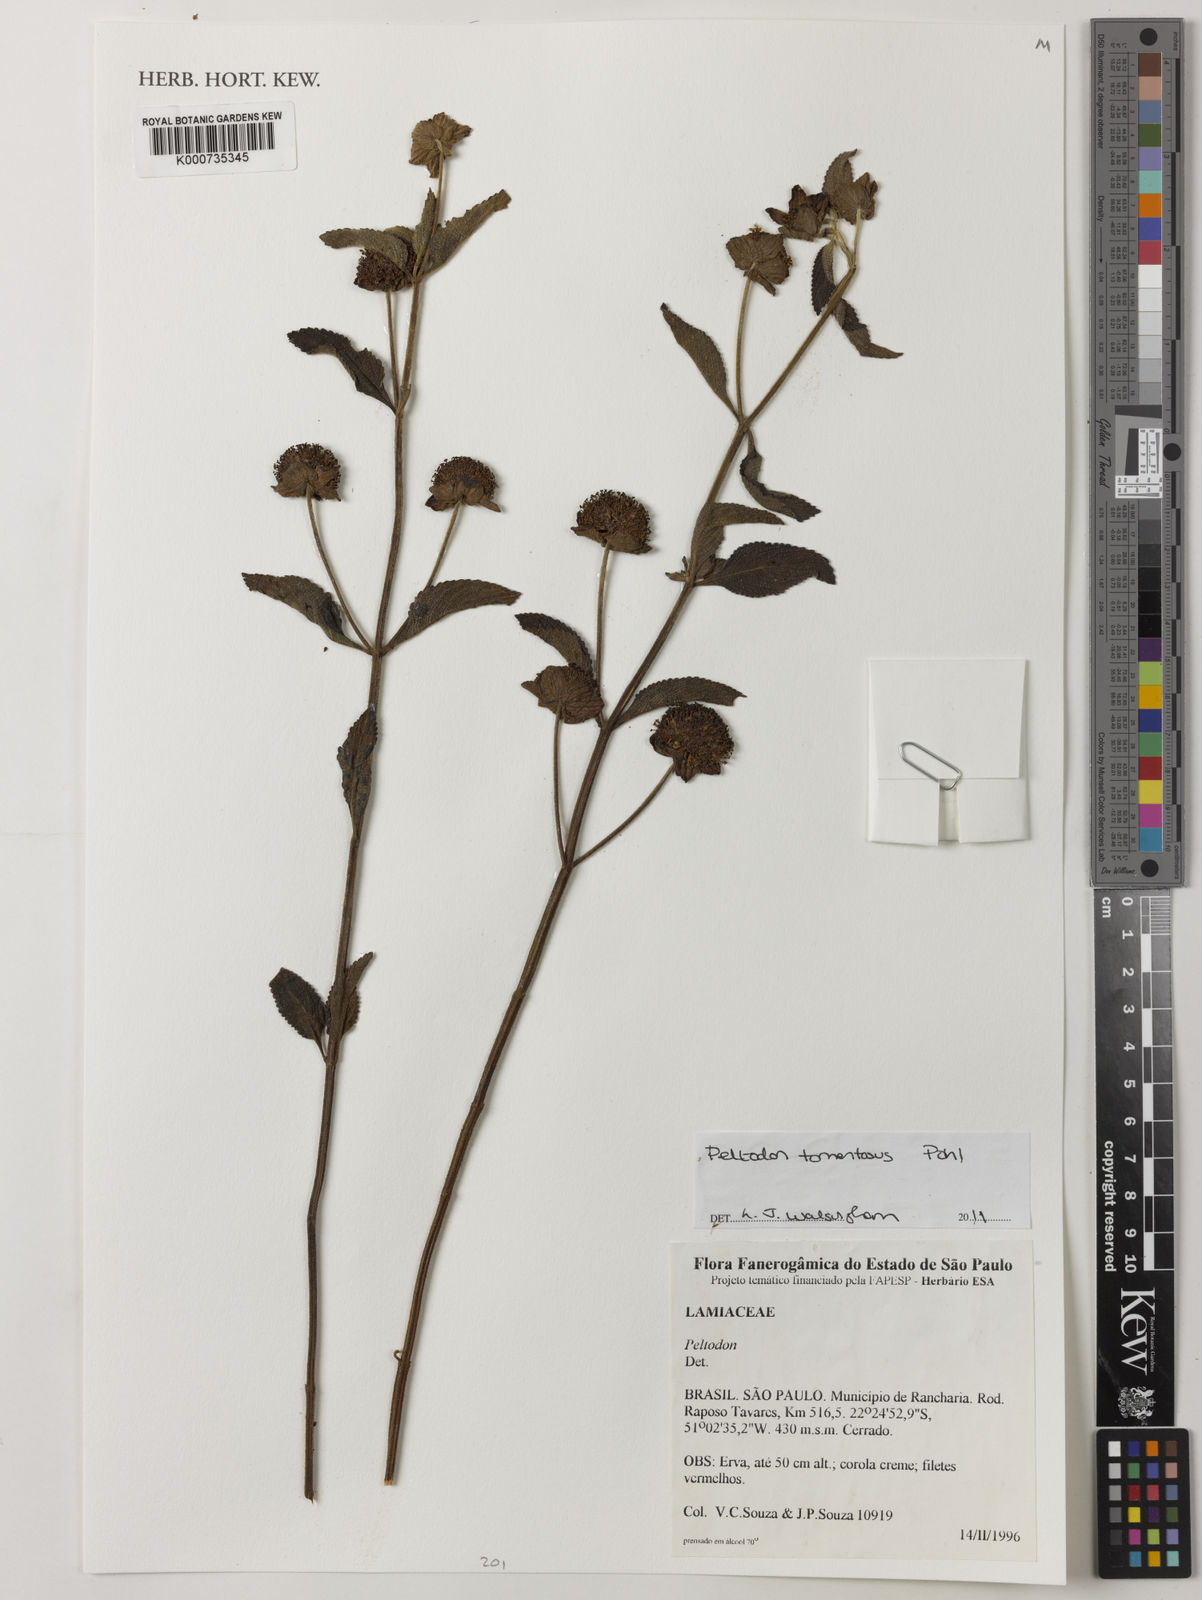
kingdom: Plantae
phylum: Tracheophyta
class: Magnoliopsida
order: Lamiales
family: Lamiaceae
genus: Hyptis
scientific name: Hyptis campestris
